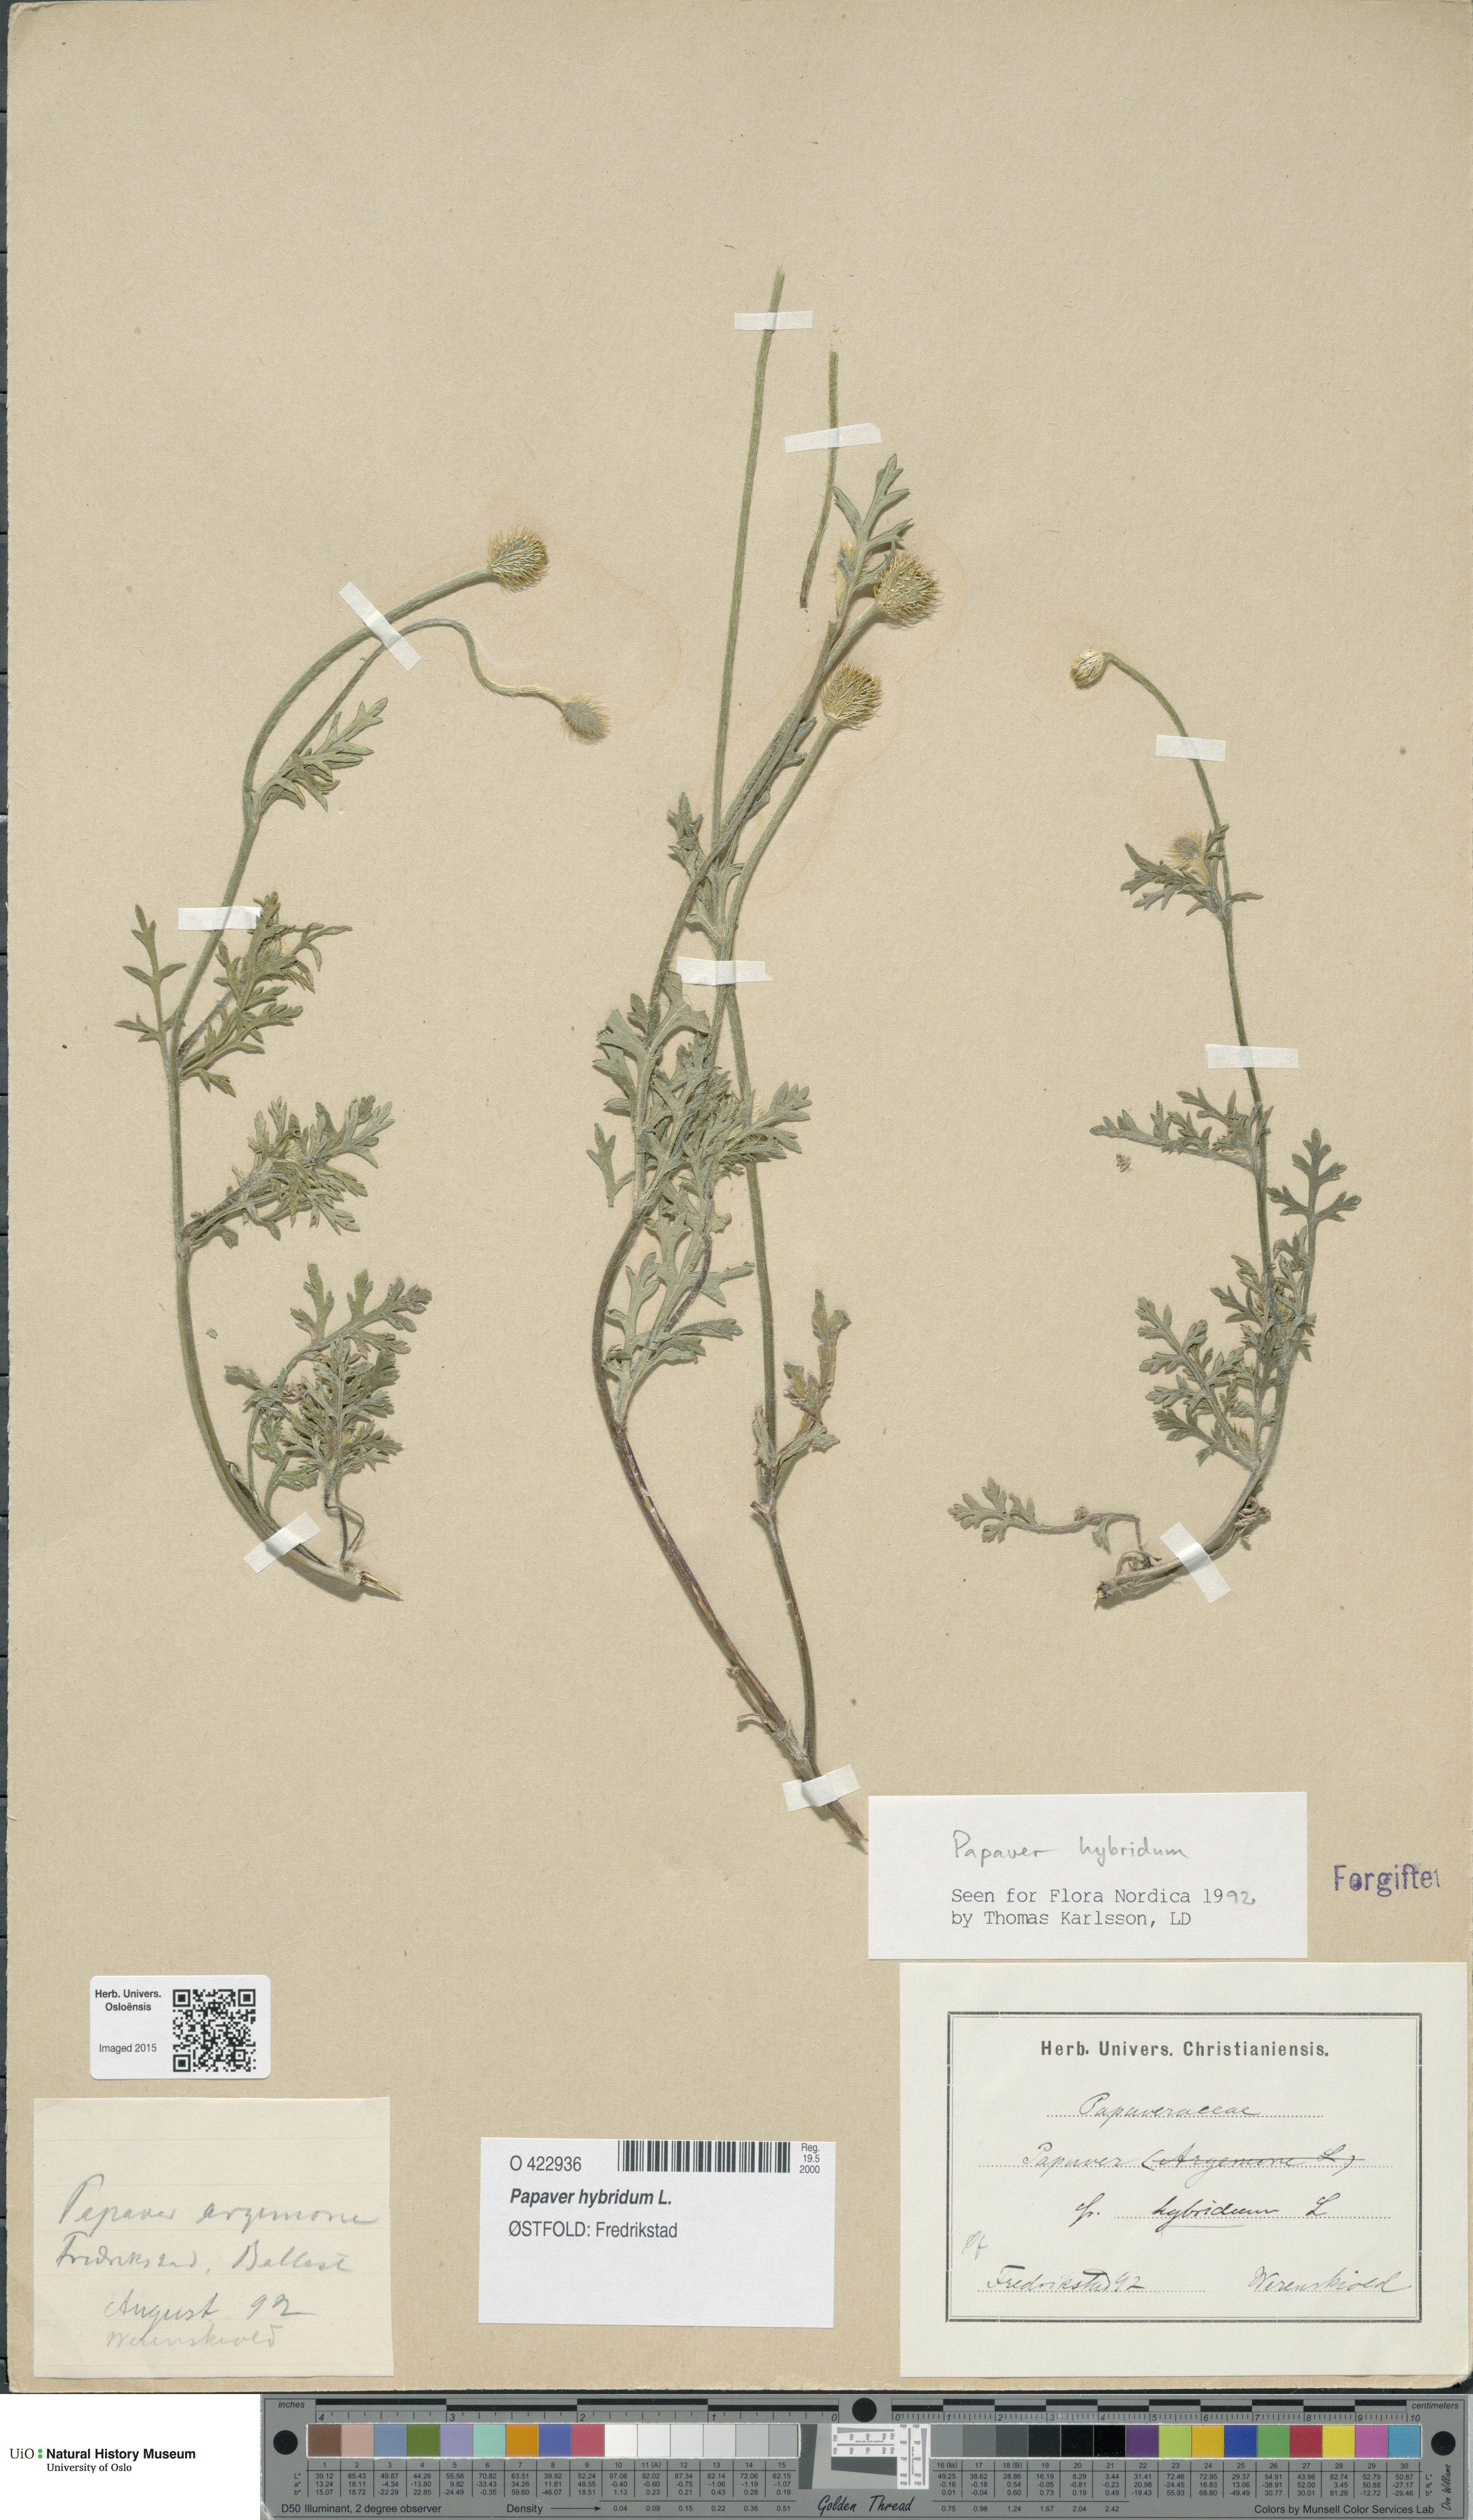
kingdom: Plantae
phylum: Tracheophyta
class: Magnoliopsida
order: Ranunculales
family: Papaveraceae
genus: Roemeria
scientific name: Roemeria hispida
